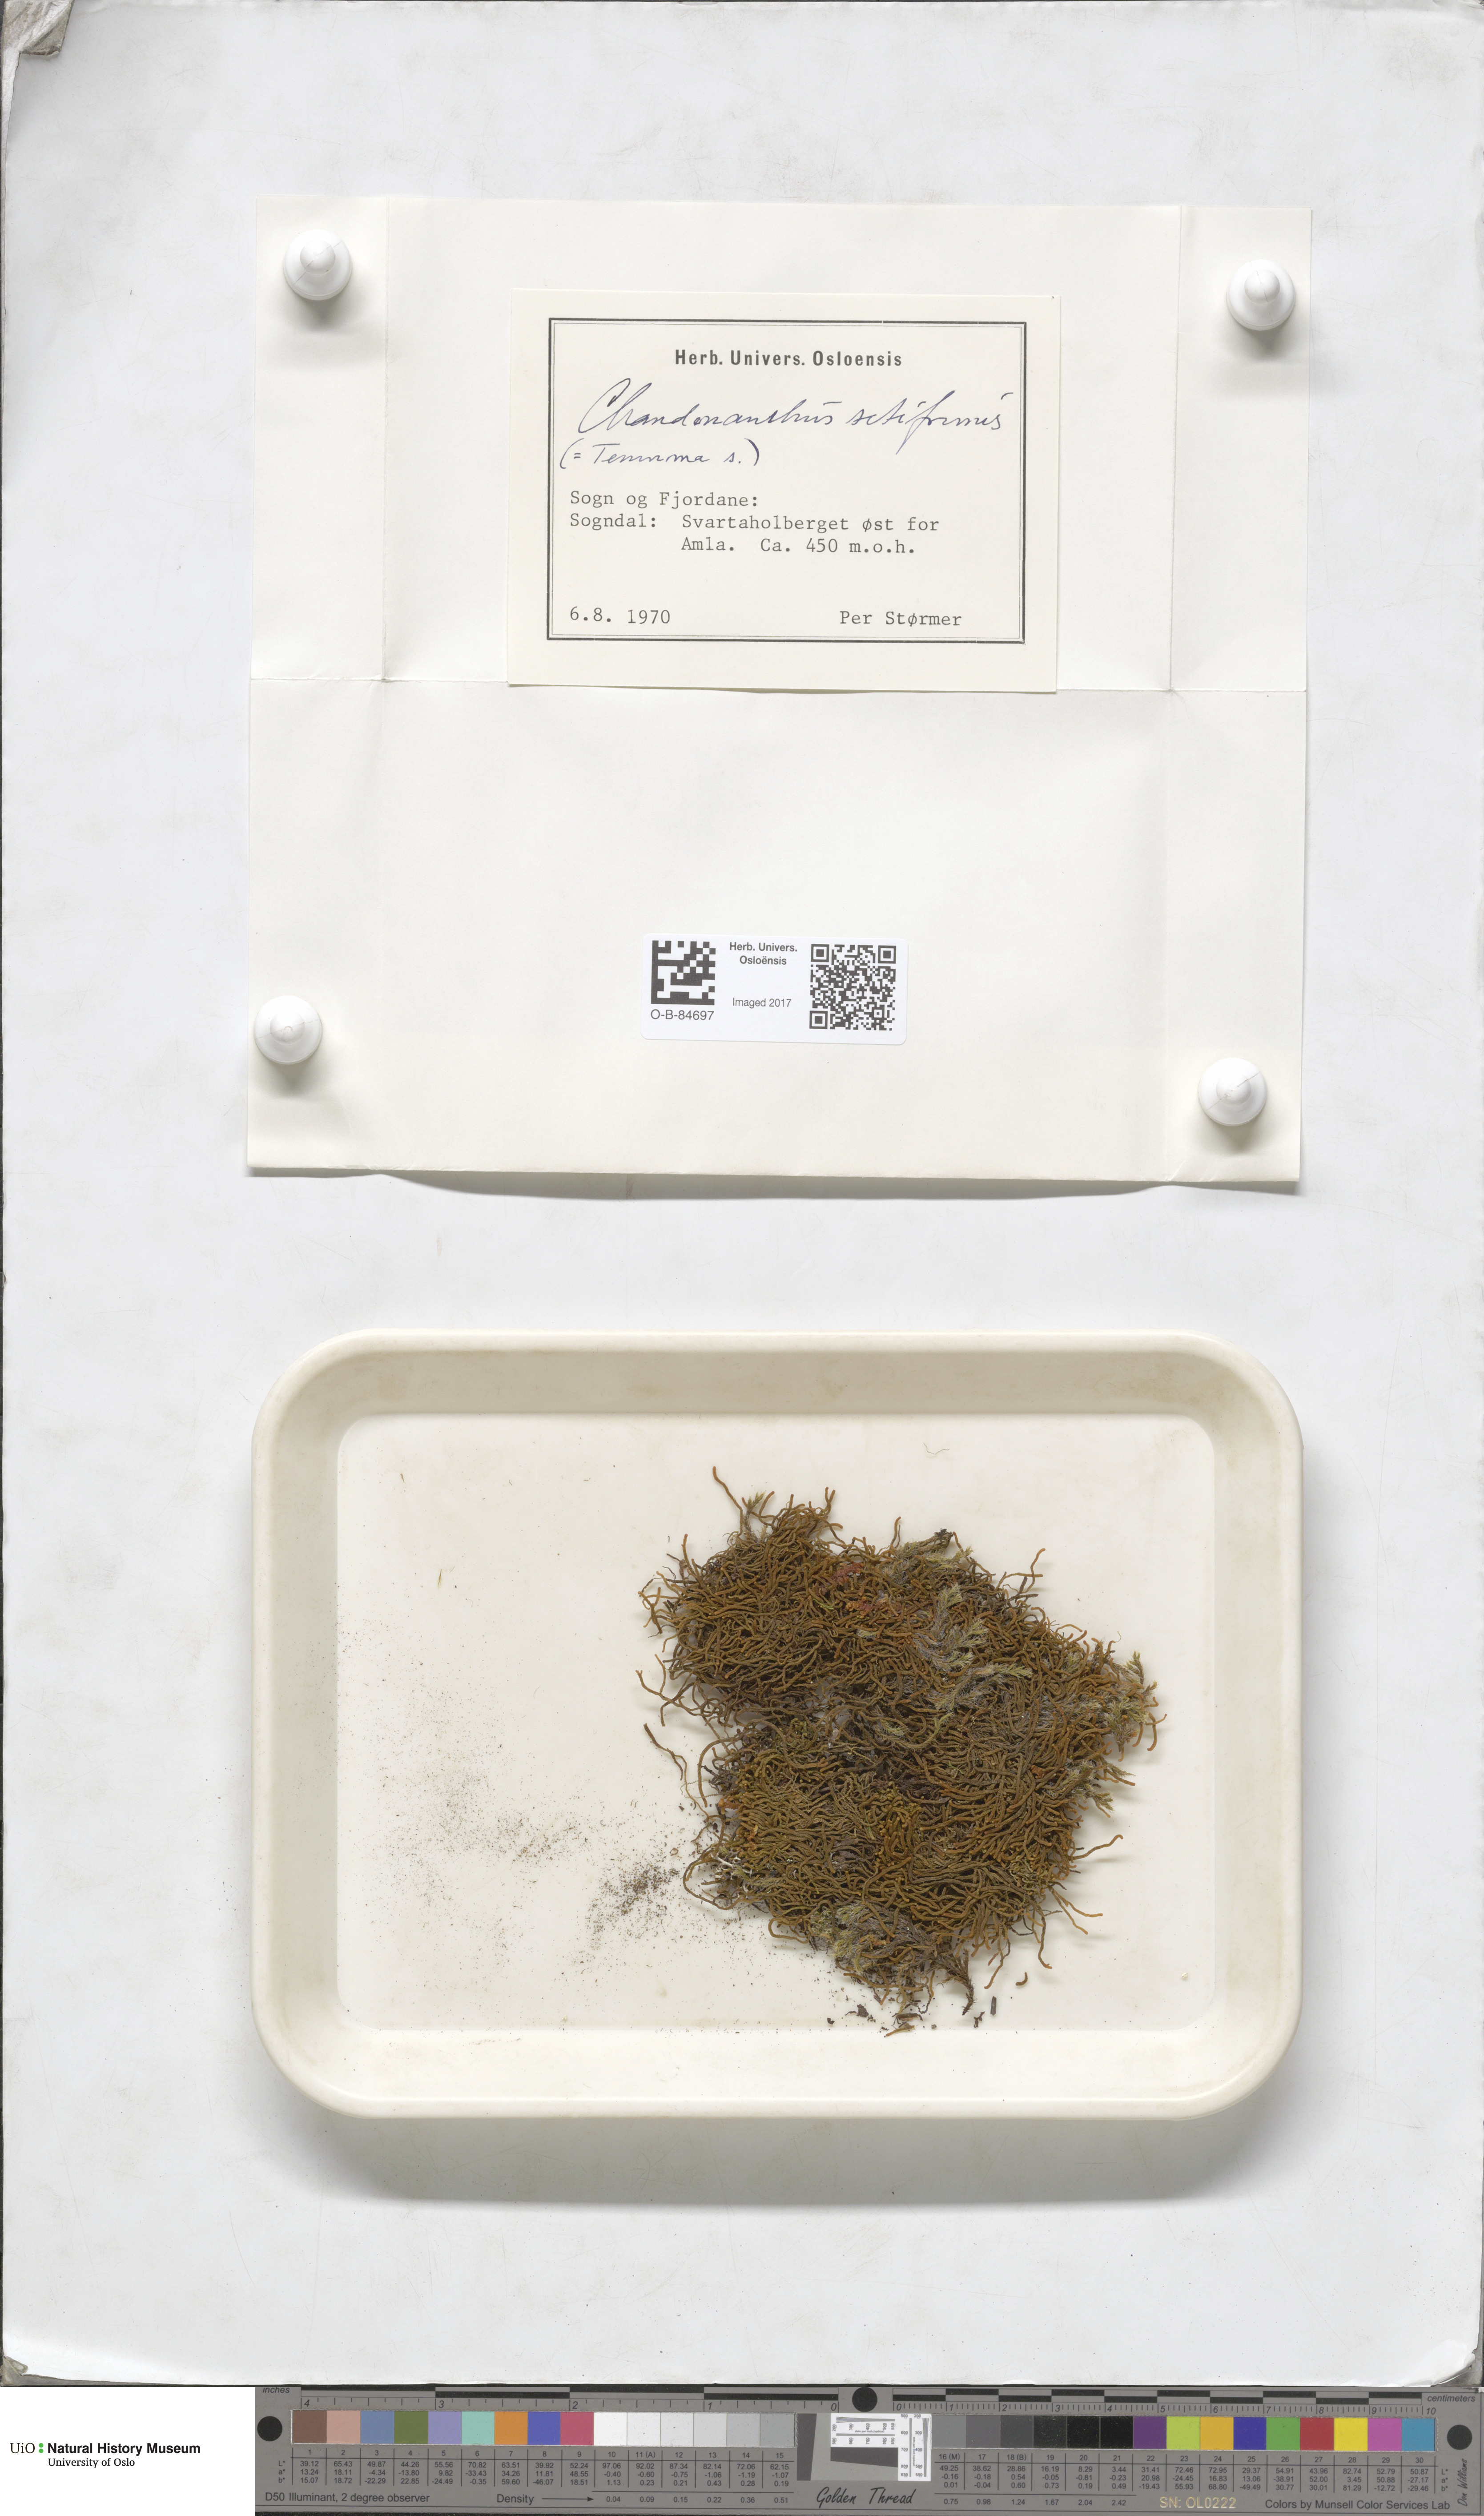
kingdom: Plantae
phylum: Marchantiophyta
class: Jungermanniopsida
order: Jungermanniales
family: Anastrophyllaceae
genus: Tetralophozia
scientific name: Tetralophozia setiformis
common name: Monster pawwort
